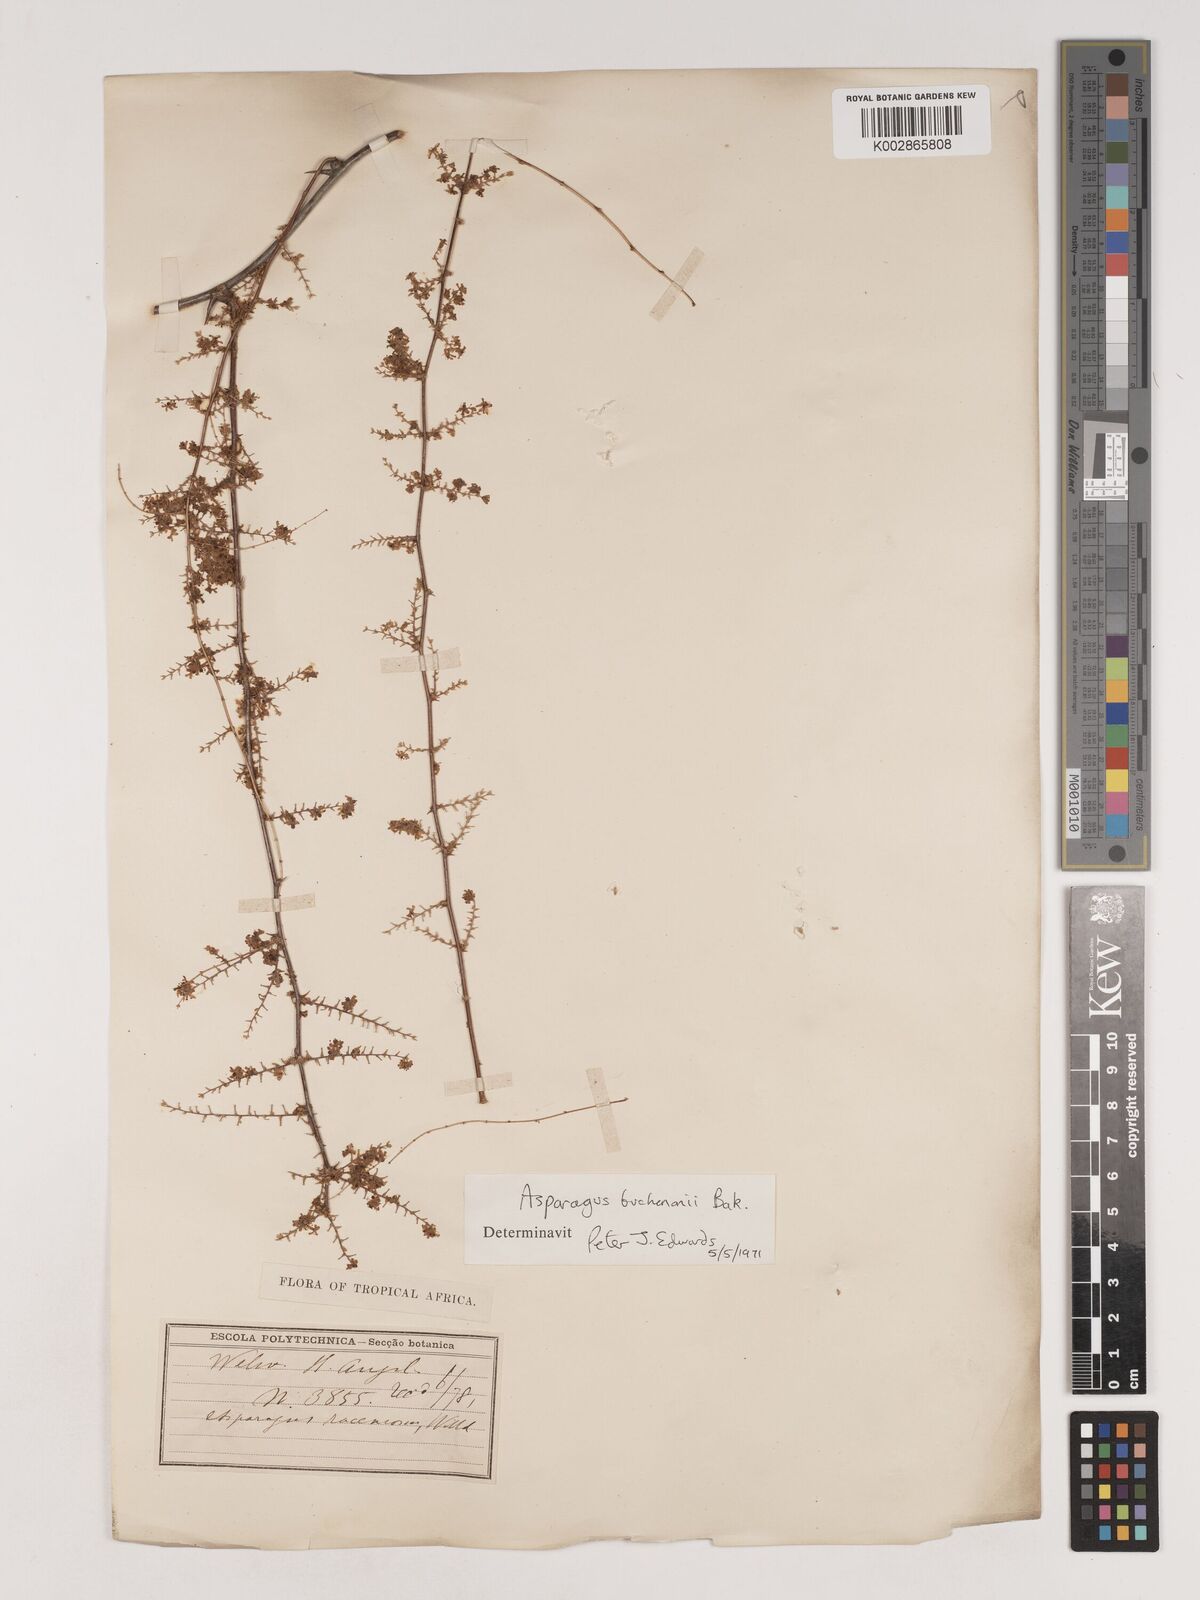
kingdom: Plantae
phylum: Tracheophyta
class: Liliopsida
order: Asparagales
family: Asparagaceae
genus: Asparagus
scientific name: Asparagus buchananii
